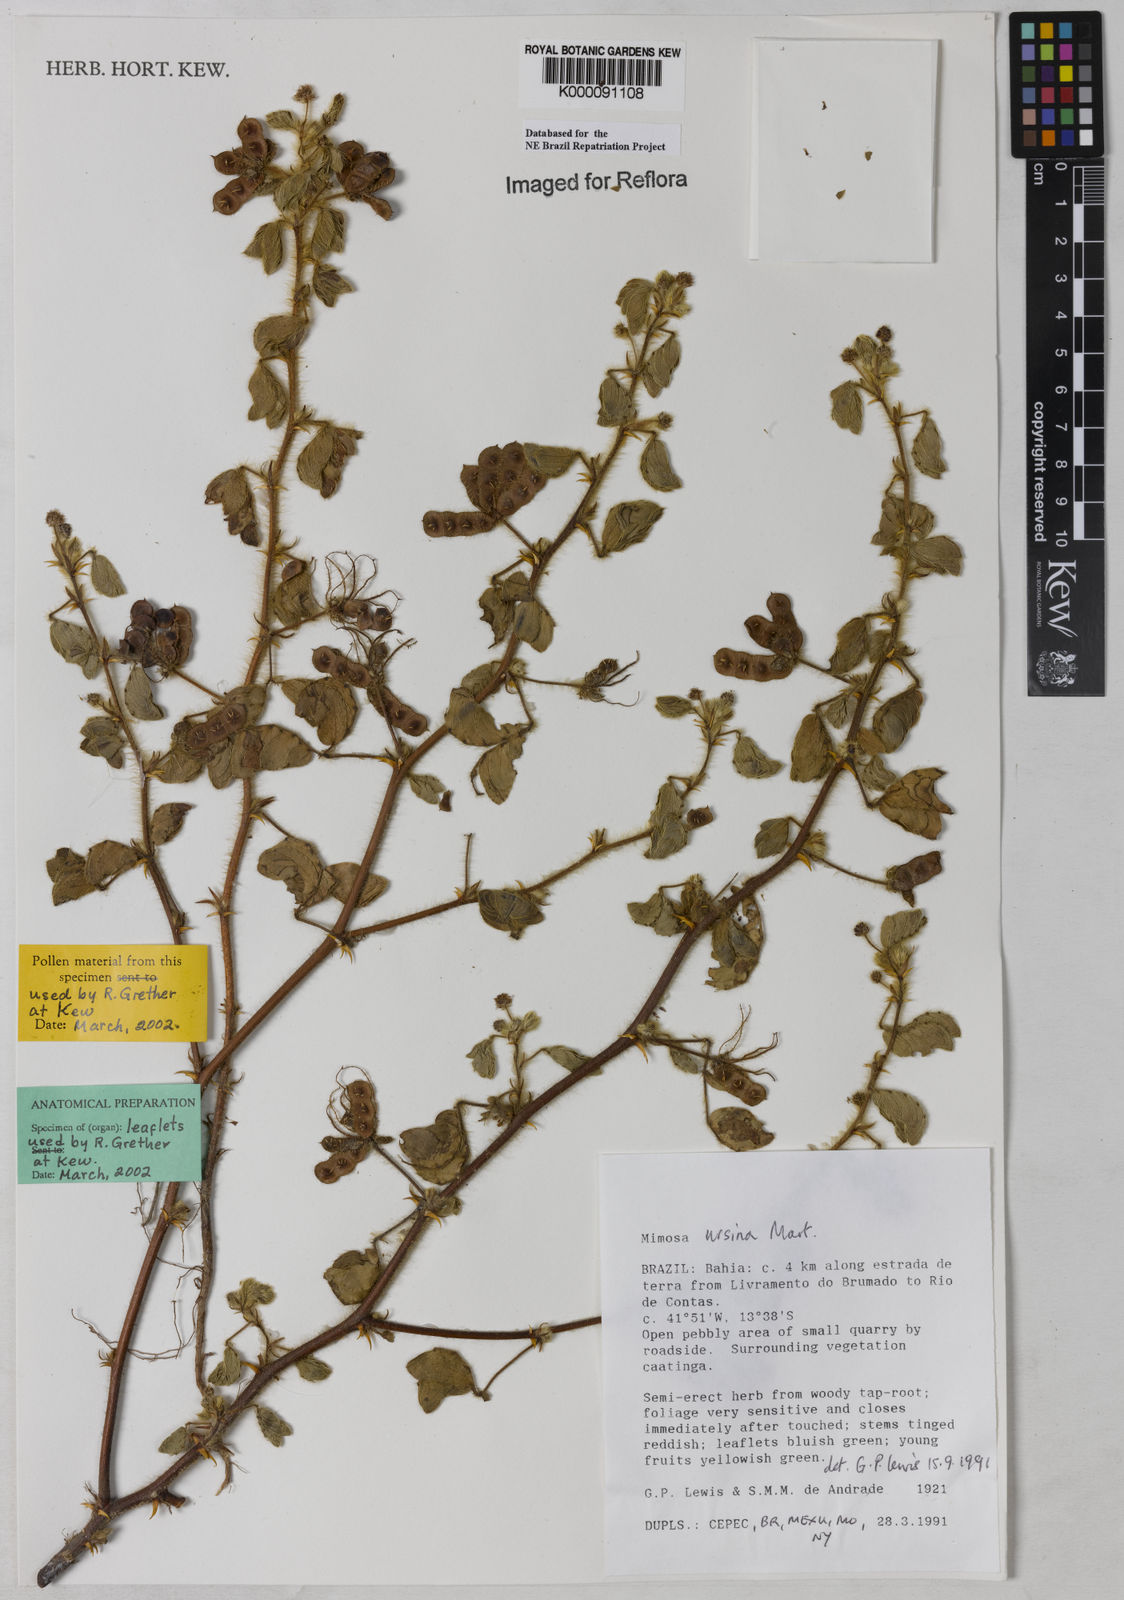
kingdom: Plantae
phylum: Tracheophyta
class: Magnoliopsida
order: Fabales
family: Fabaceae
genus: Mimosa
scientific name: Mimosa ursina
